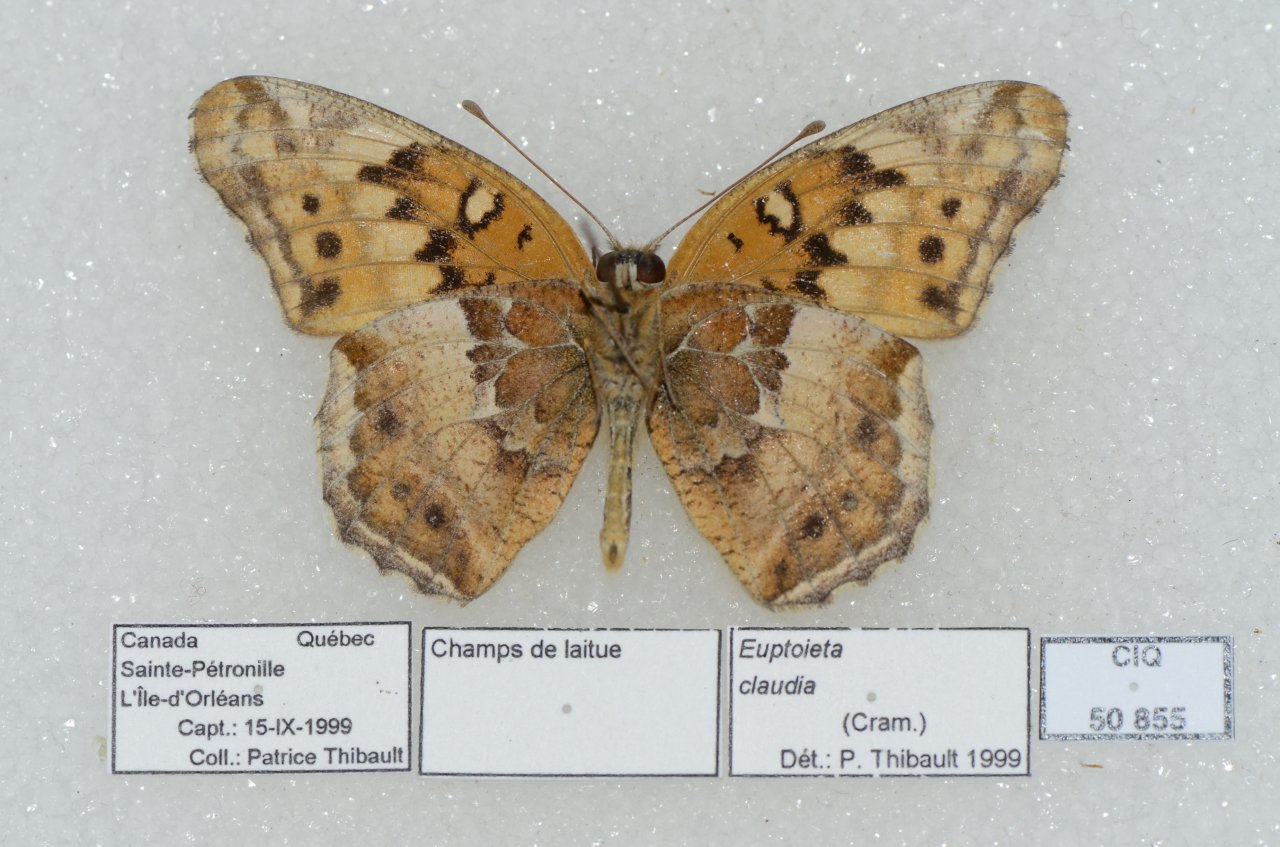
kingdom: Animalia
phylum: Arthropoda
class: Insecta
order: Lepidoptera
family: Nymphalidae
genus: Euptoieta
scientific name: Euptoieta claudia
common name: Variegated Fritillary
